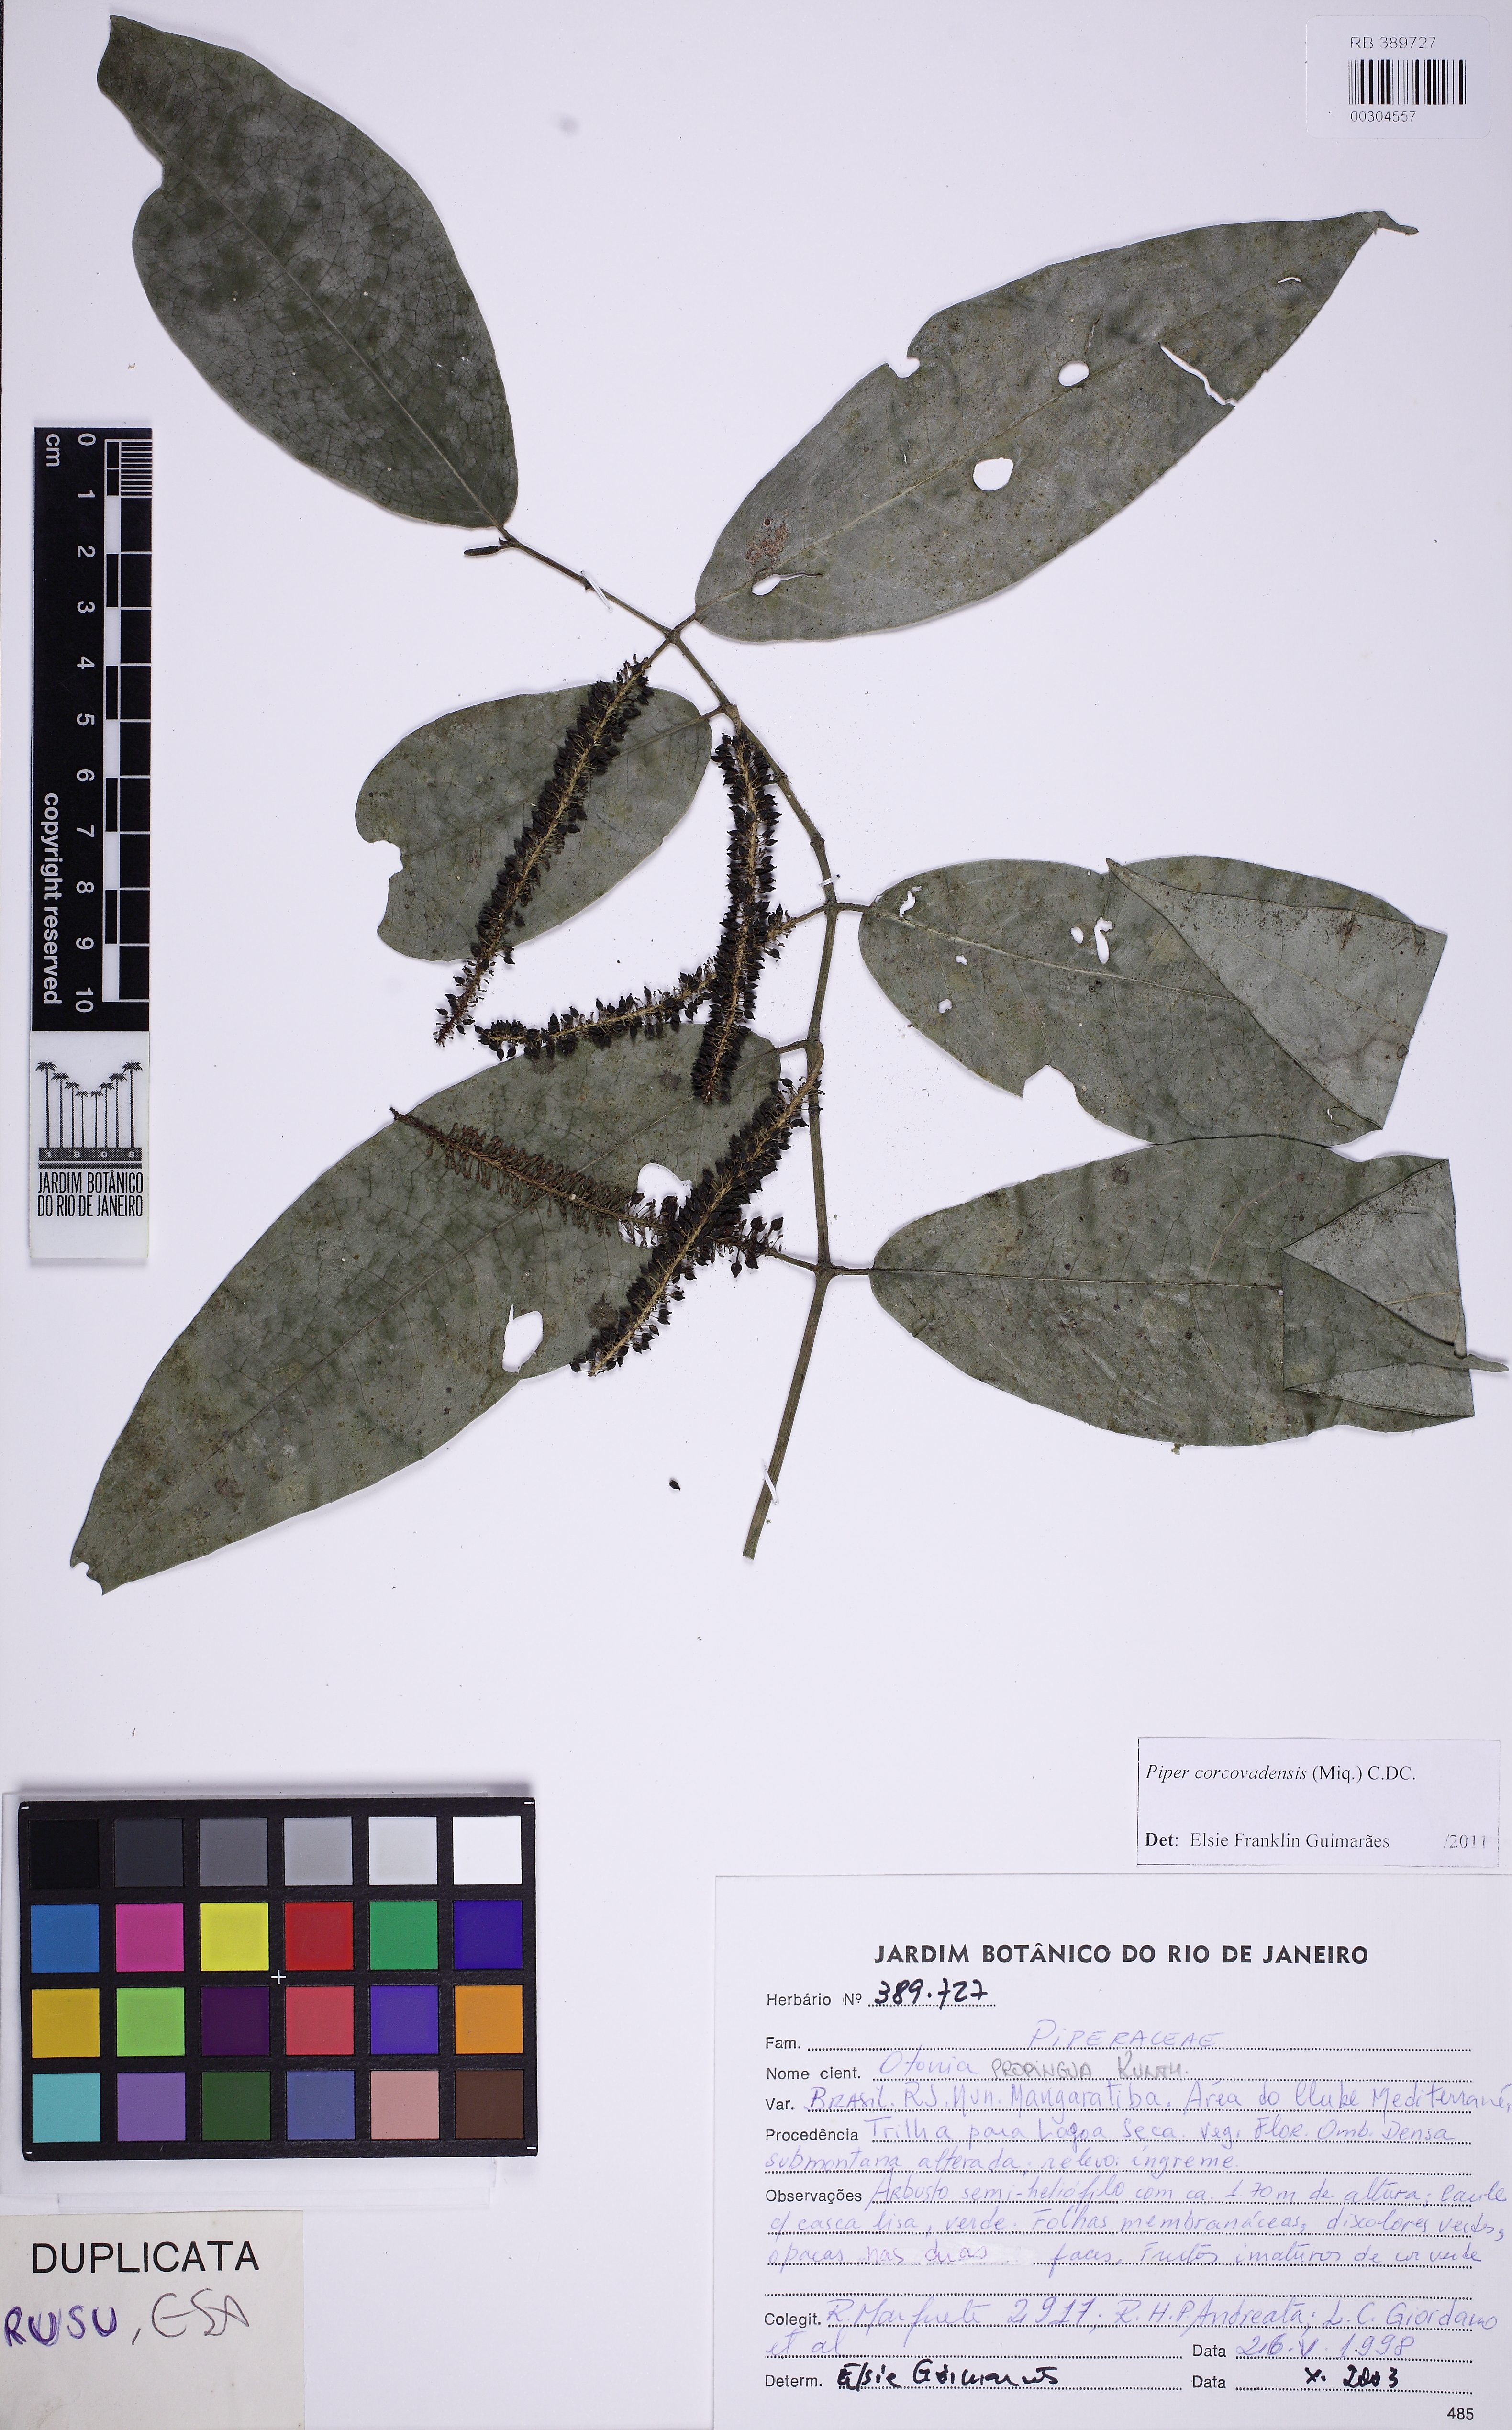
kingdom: Plantae
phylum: Tracheophyta
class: Magnoliopsida
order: Piperales
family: Piperaceae
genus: Piper
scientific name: Piper corcovadense
